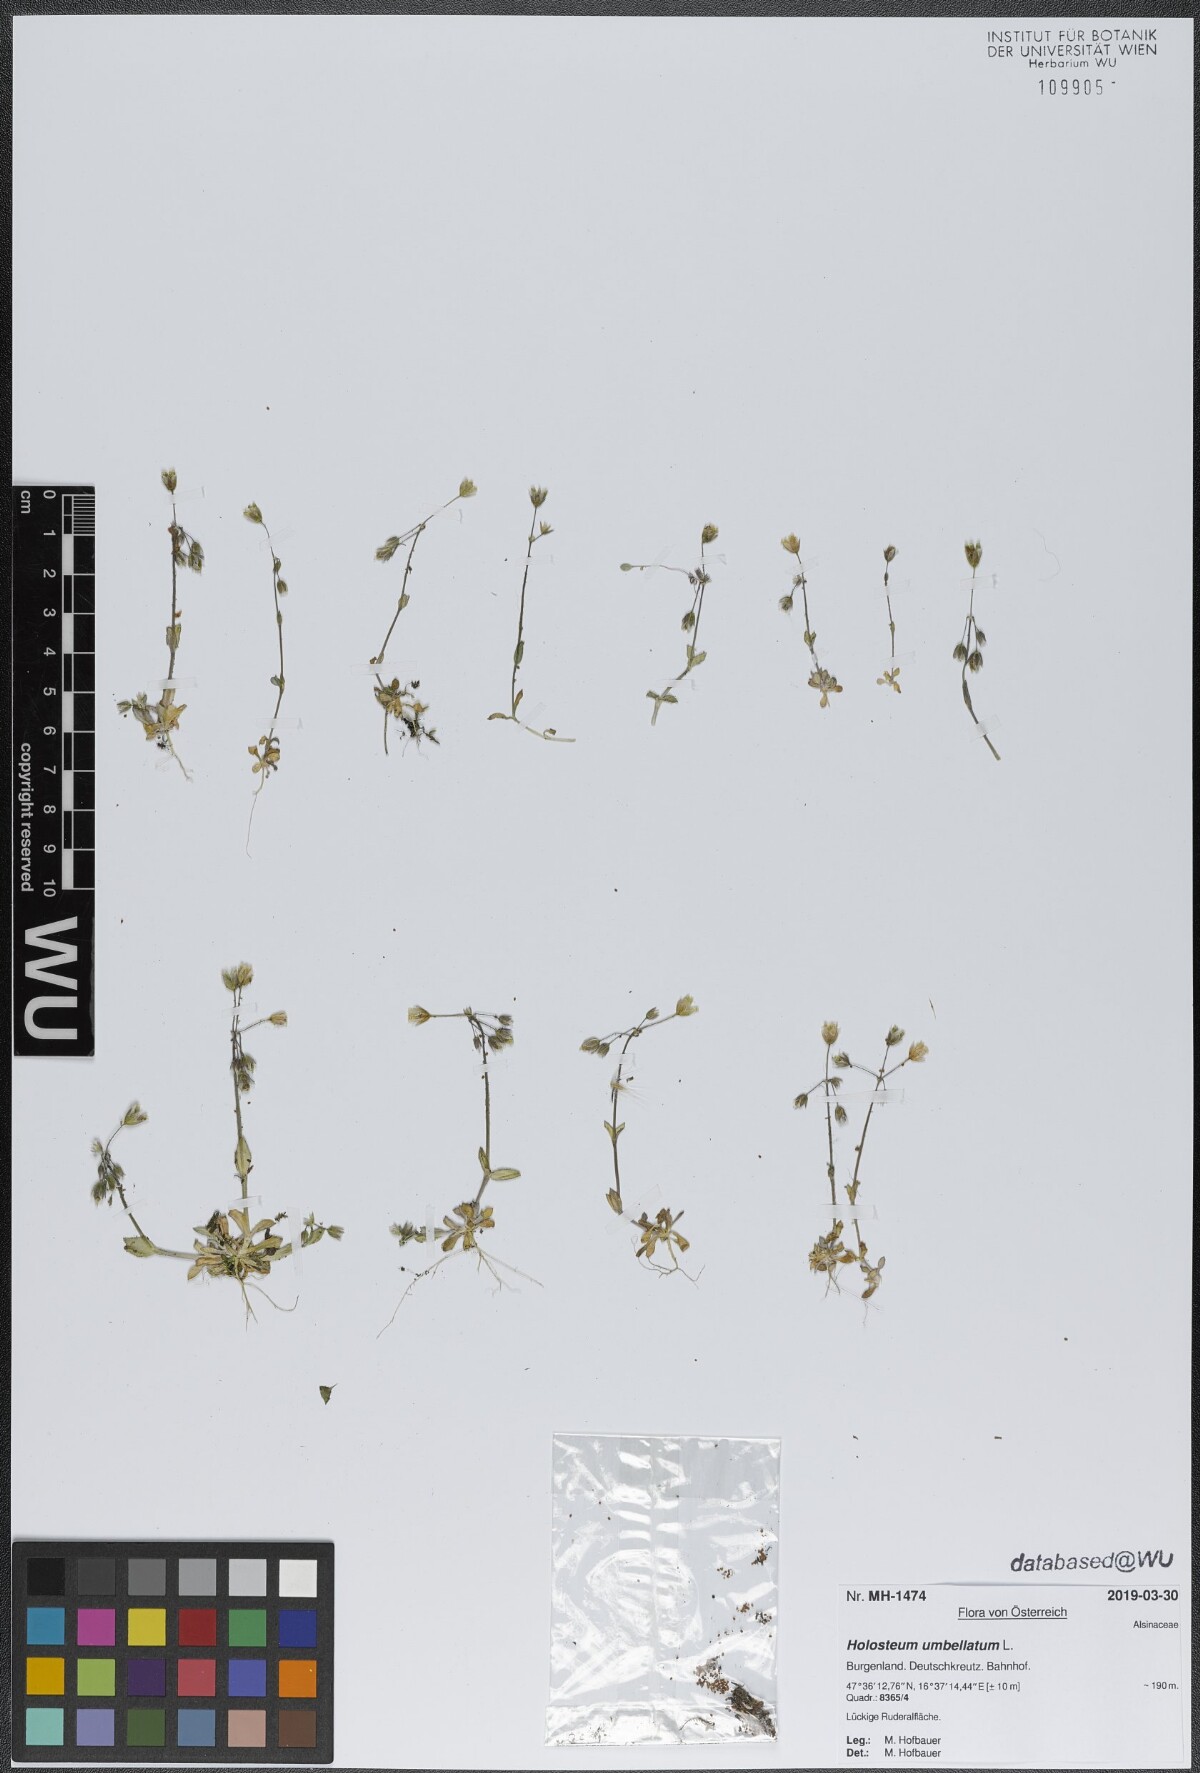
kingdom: Plantae
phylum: Tracheophyta
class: Magnoliopsida
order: Caryophyllales
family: Caryophyllaceae
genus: Holosteum
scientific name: Holosteum umbellatum
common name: Jagged chickweed
